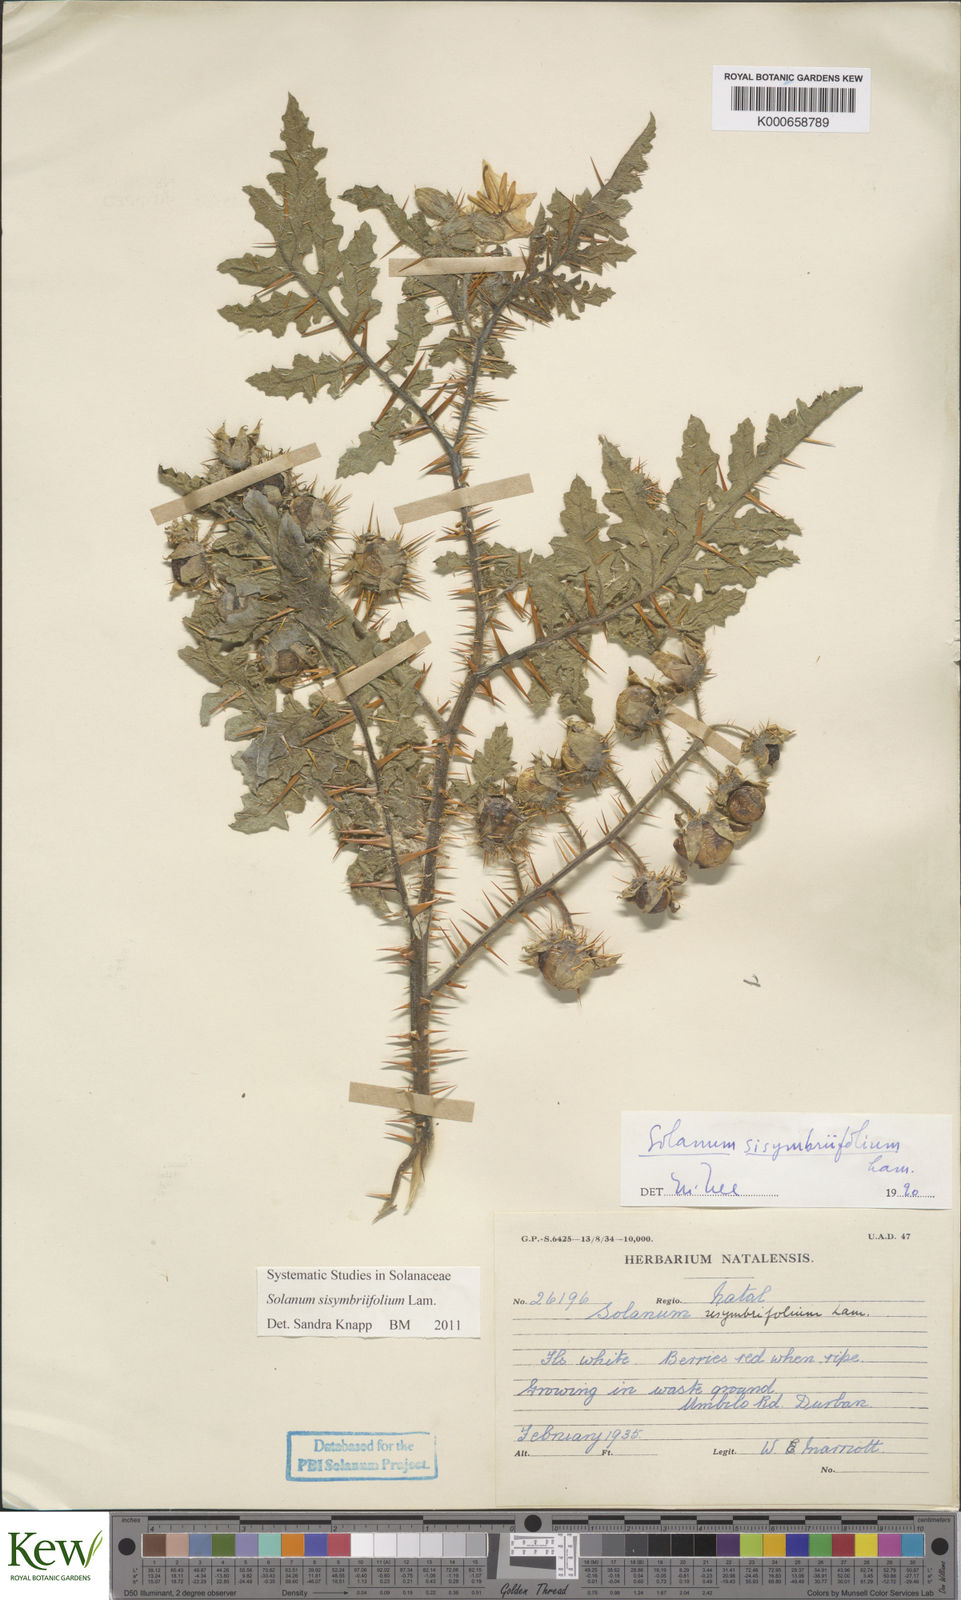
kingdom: Plantae
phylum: Tracheophyta
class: Magnoliopsida
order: Solanales
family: Solanaceae
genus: Solanum
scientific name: Solanum sisymbriifolium
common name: Red buffalo-bur
